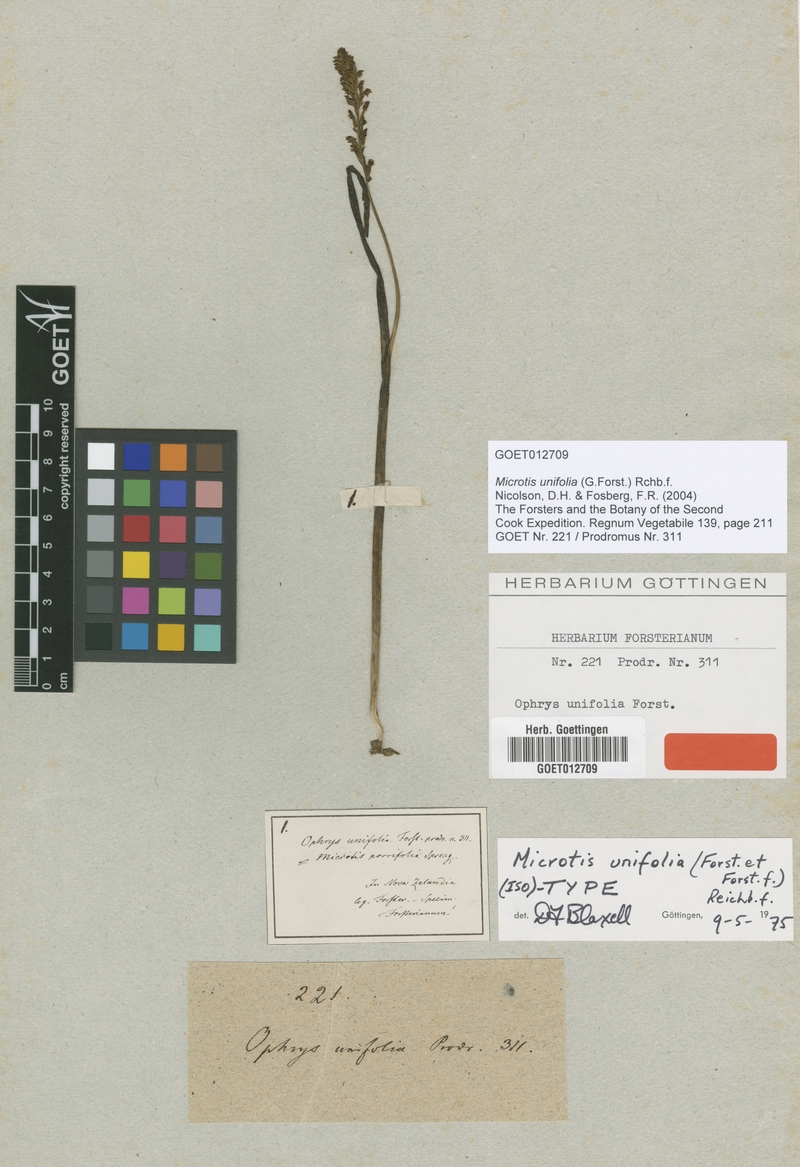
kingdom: Plantae
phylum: Tracheophyta
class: Liliopsida
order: Asparagales
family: Orchidaceae
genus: Microtis
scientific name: Microtis unifolia
